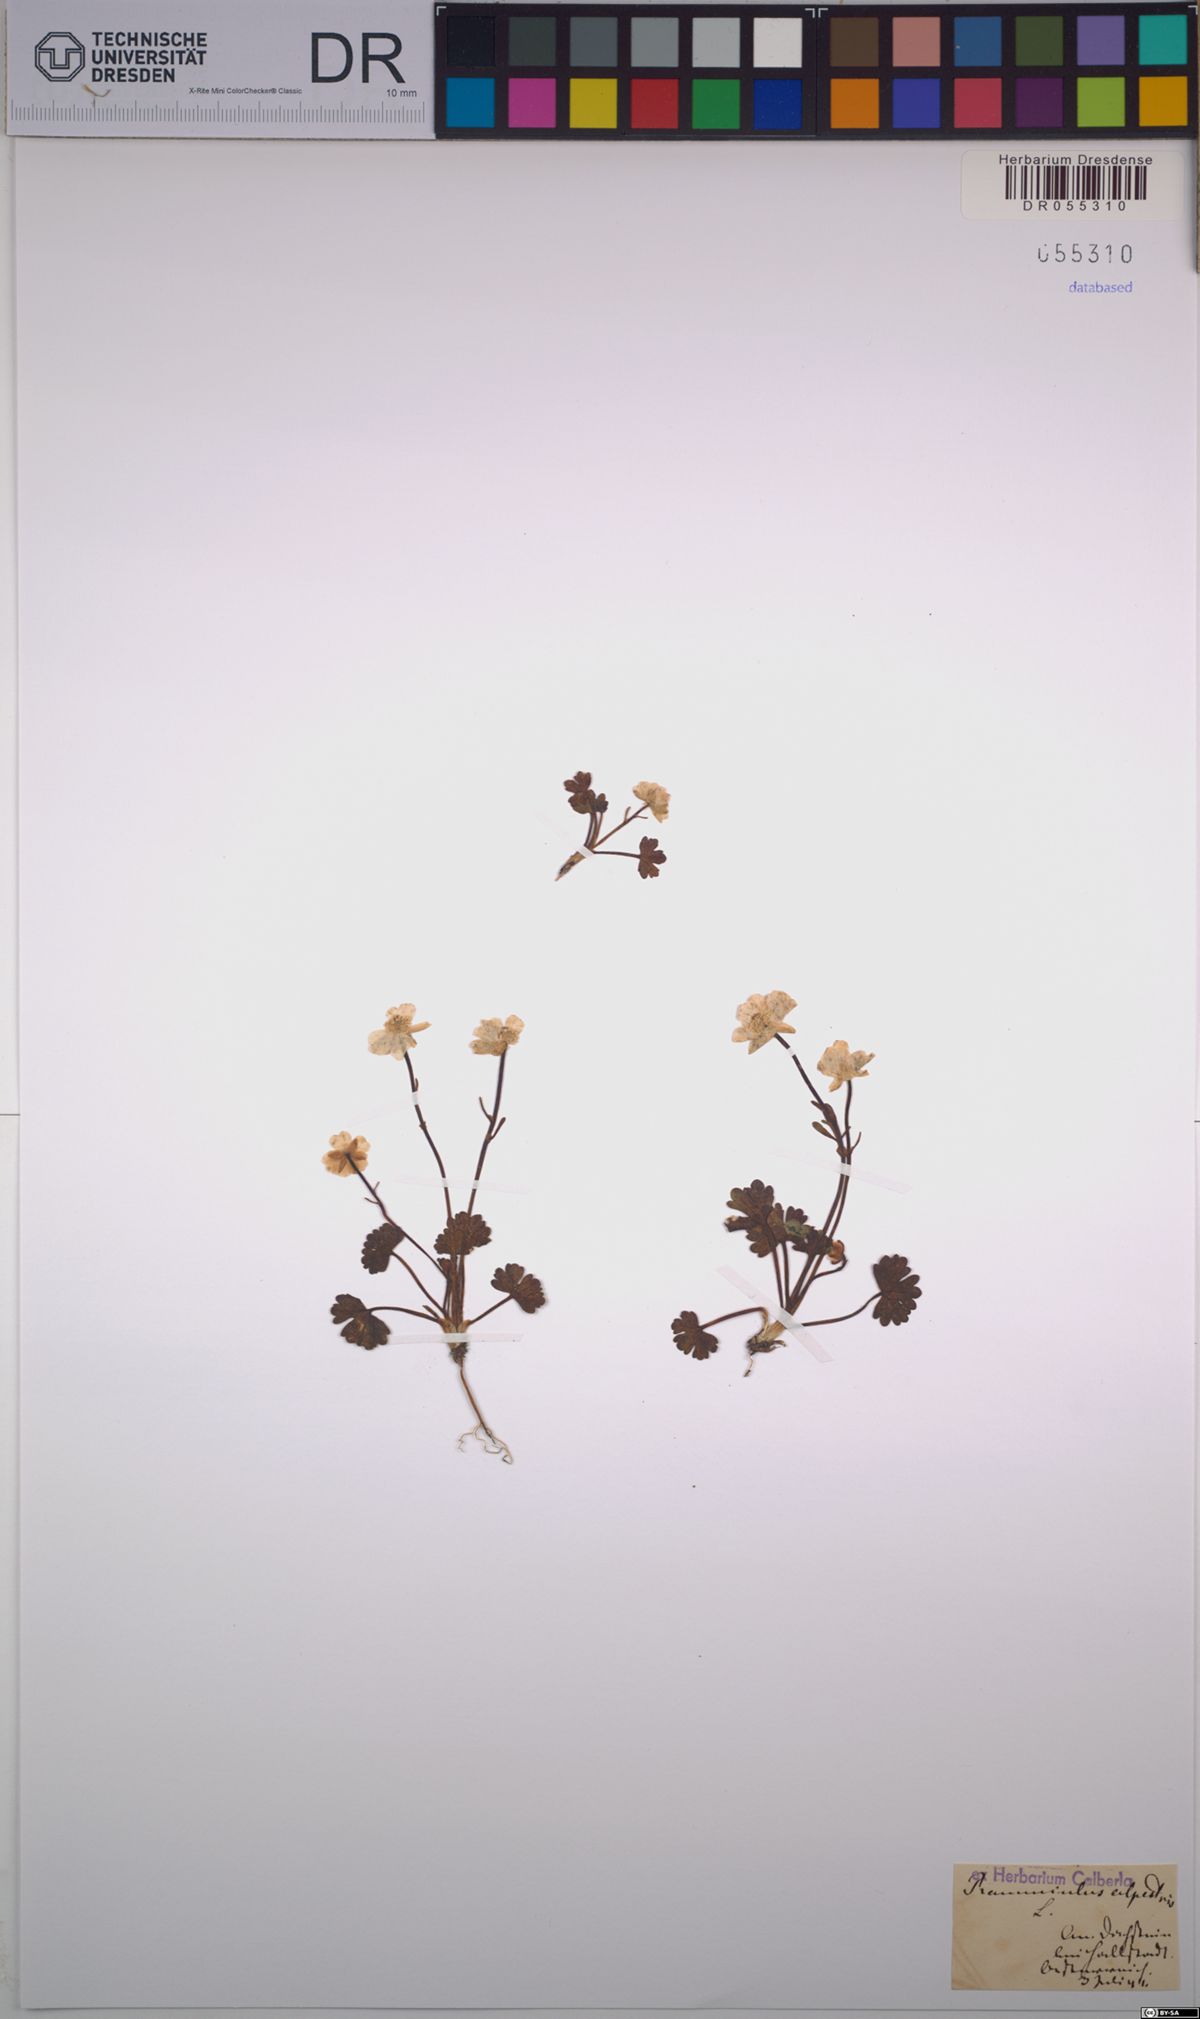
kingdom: Plantae
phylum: Tracheophyta
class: Magnoliopsida
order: Ranunculales
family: Ranunculaceae
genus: Ranunculus
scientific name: Ranunculus alpestris
